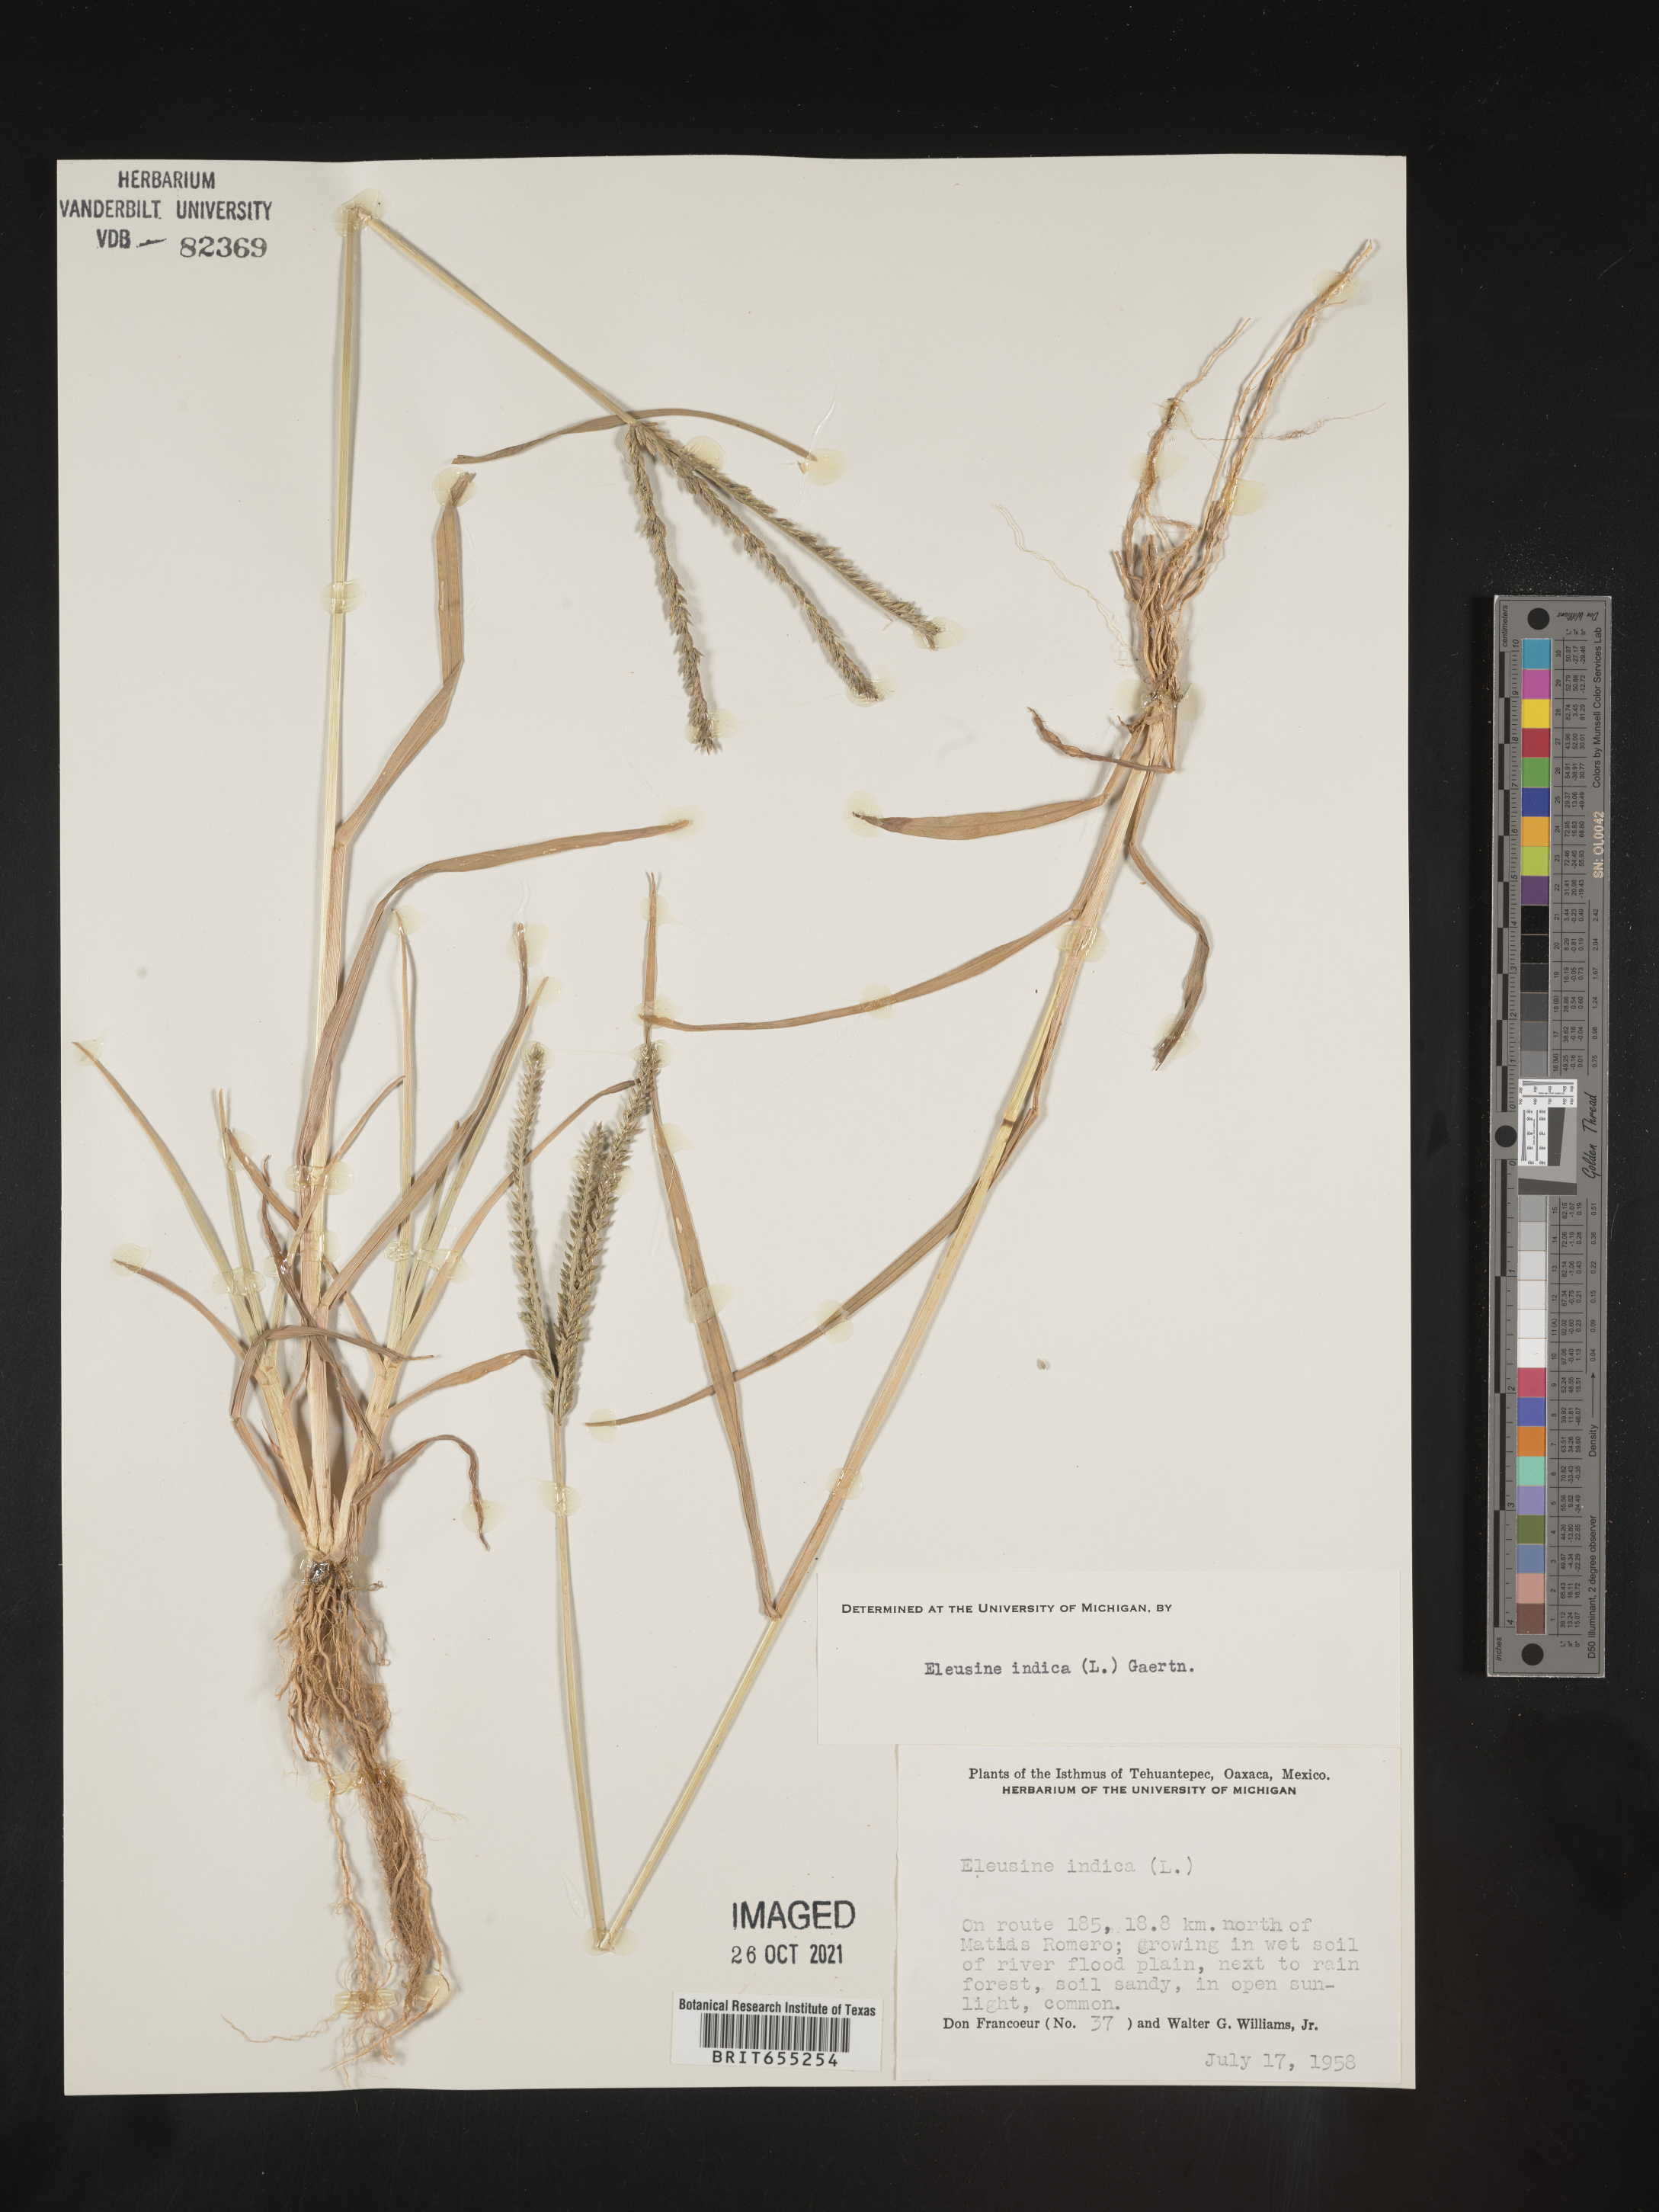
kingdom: Plantae
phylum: Tracheophyta
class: Liliopsida
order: Poales
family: Poaceae
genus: Eleusine
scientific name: Eleusine
